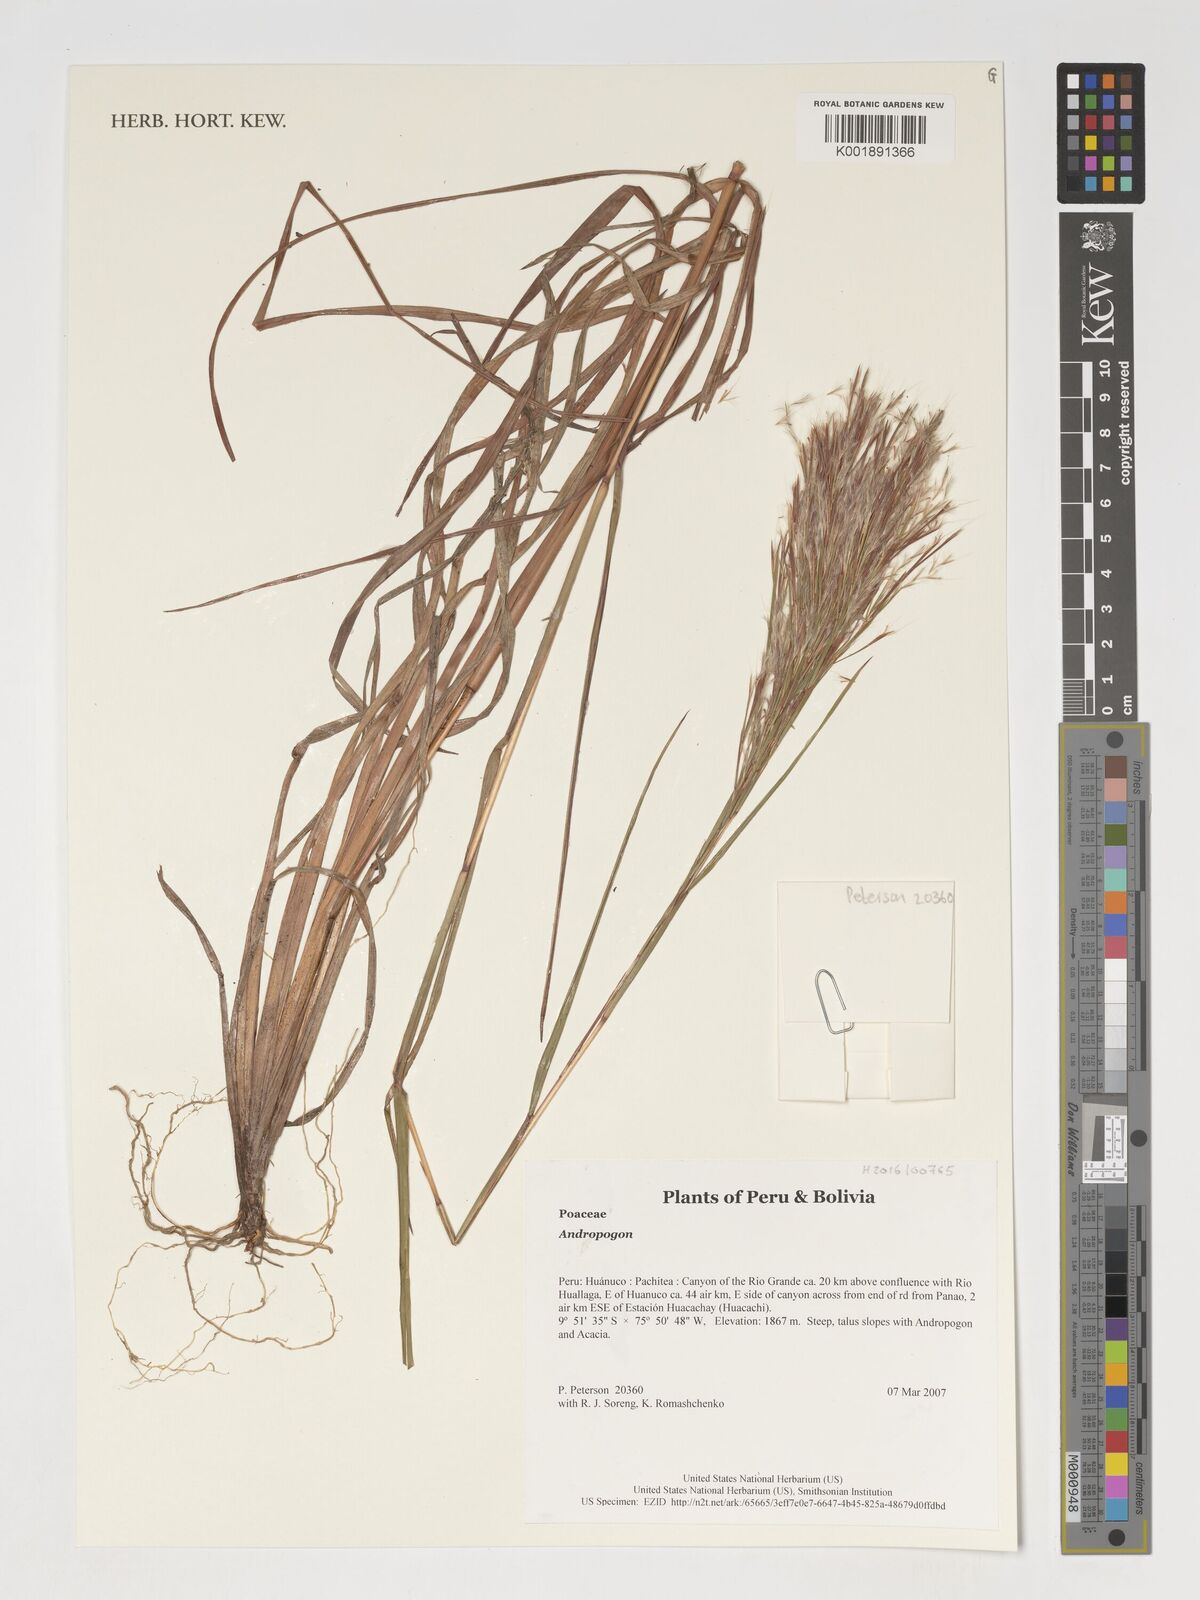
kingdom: Plantae
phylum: Tracheophyta
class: Liliopsida
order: Poales
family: Poaceae
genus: Andropogon
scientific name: Andropogon
